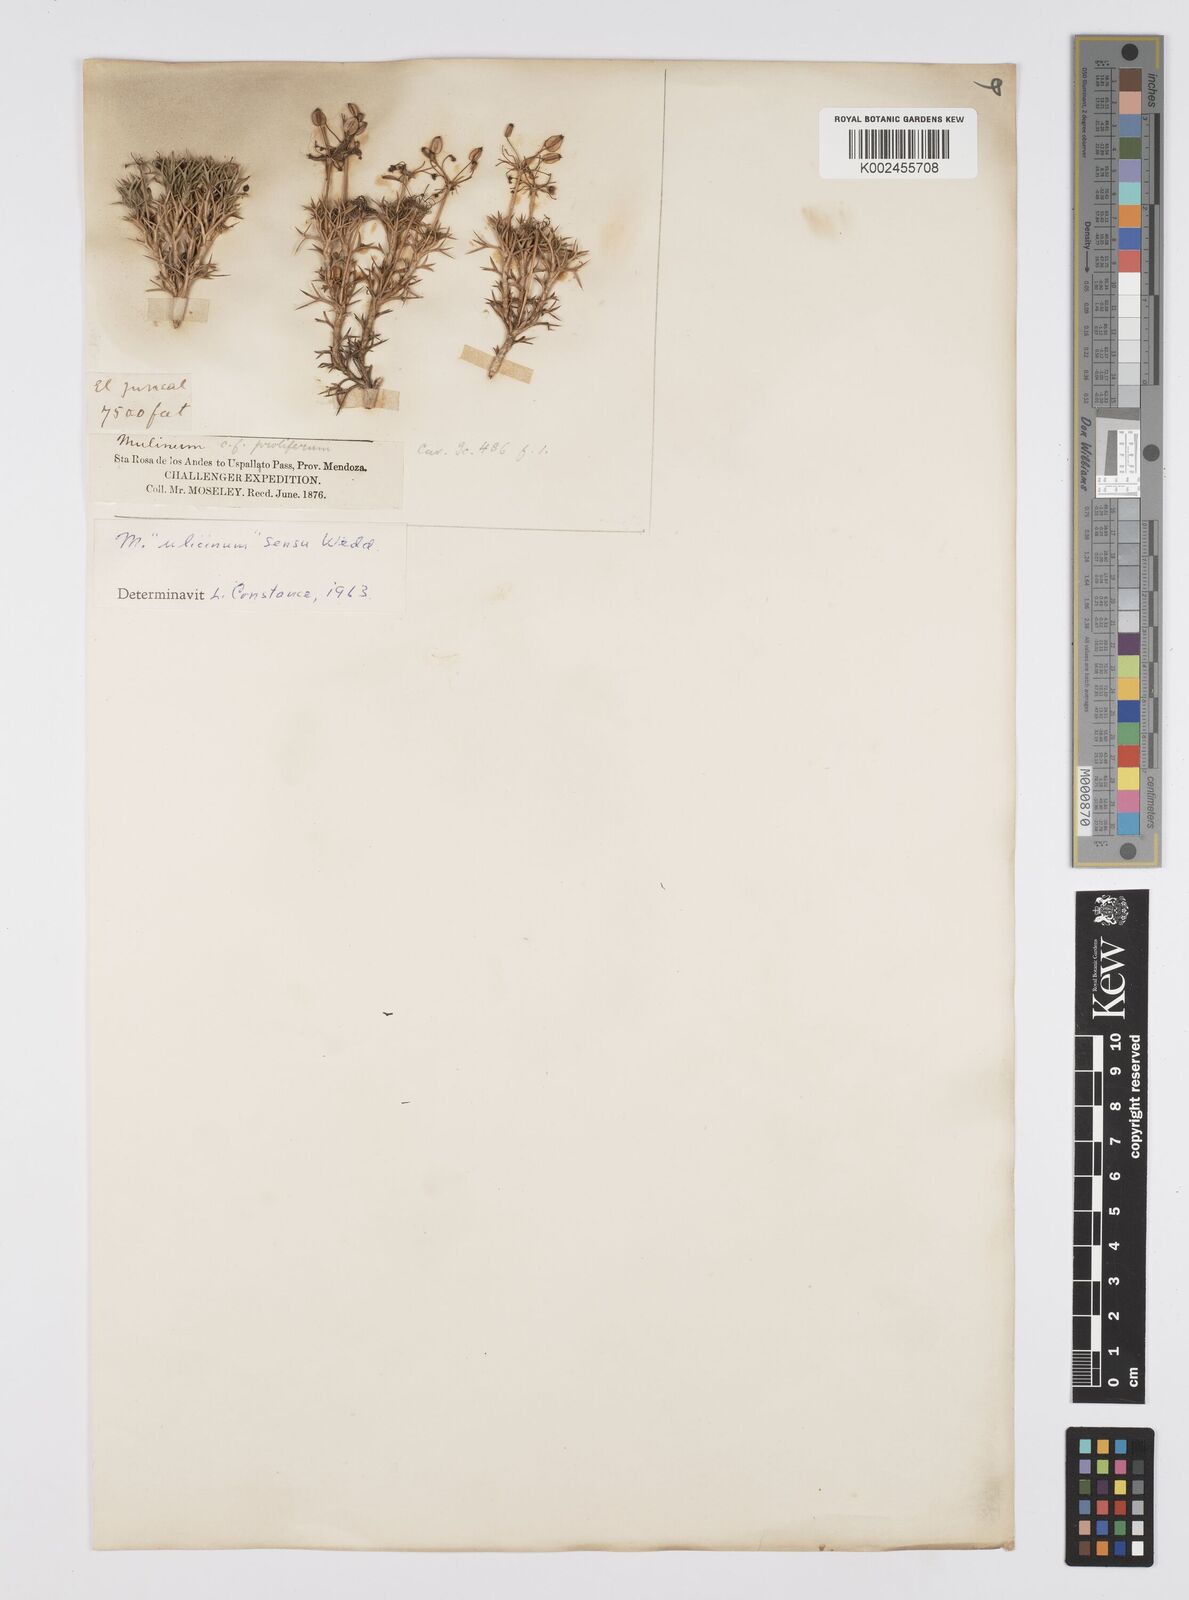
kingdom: Plantae
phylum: Tracheophyta
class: Magnoliopsida
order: Apiales
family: Apiaceae
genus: Azorella
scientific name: Azorella ulicina
